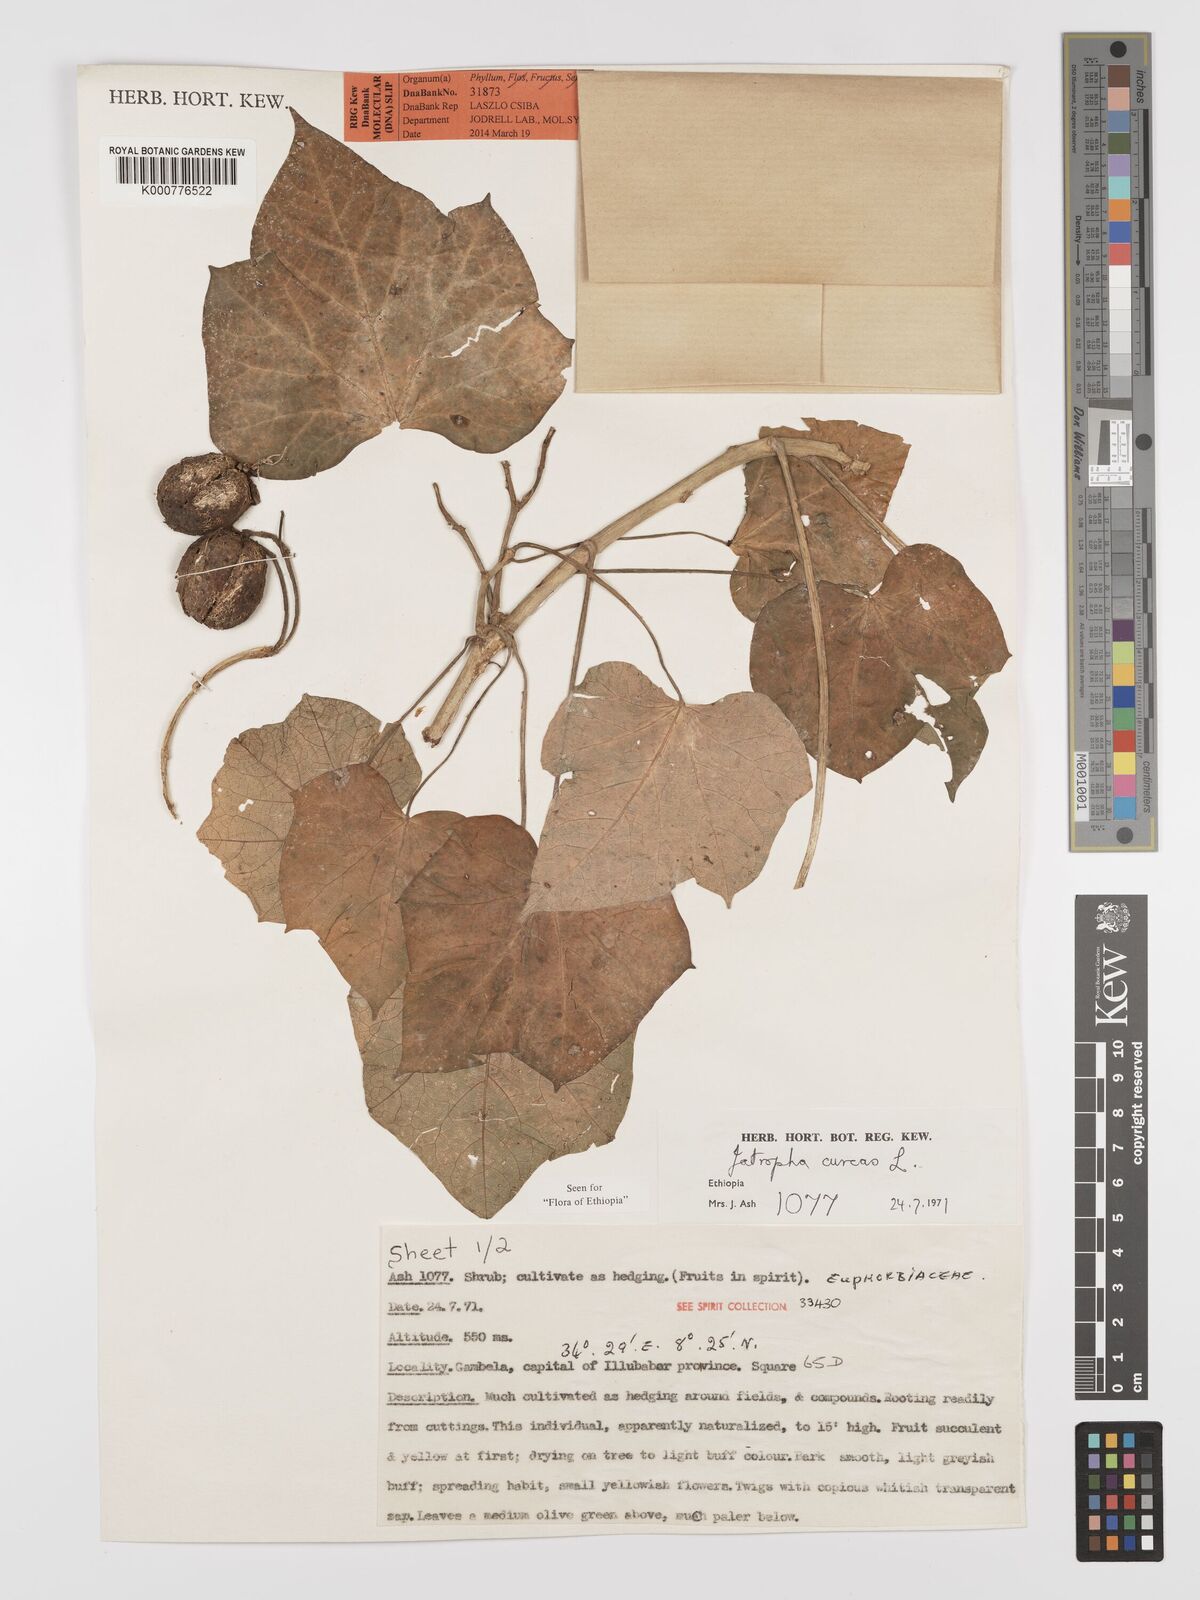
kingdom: Plantae
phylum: Tracheophyta
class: Magnoliopsida
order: Malpighiales
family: Euphorbiaceae
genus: Jatropha
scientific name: Jatropha curcas
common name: Barbados nut
